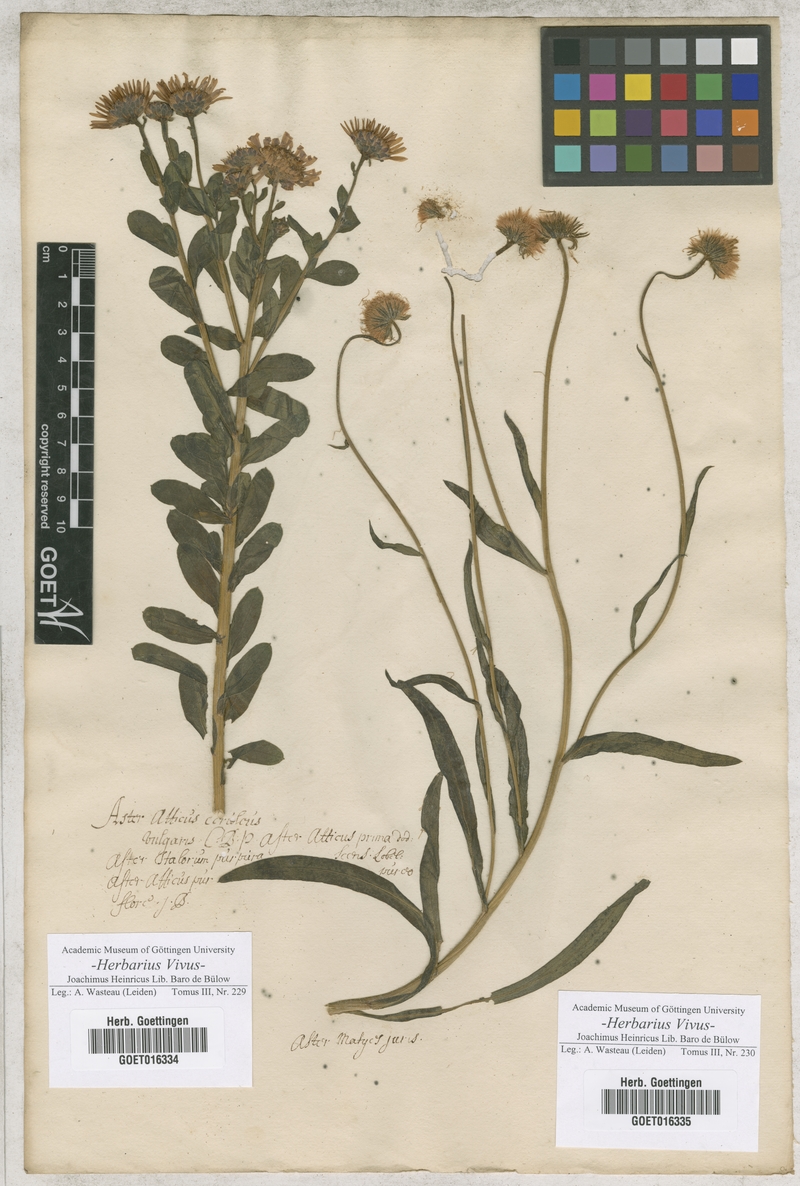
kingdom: Plantae
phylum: Tracheophyta
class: Magnoliopsida
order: Asterales
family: Asteraceae
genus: Aster
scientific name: Aster amellus
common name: European michaelmas daisy
